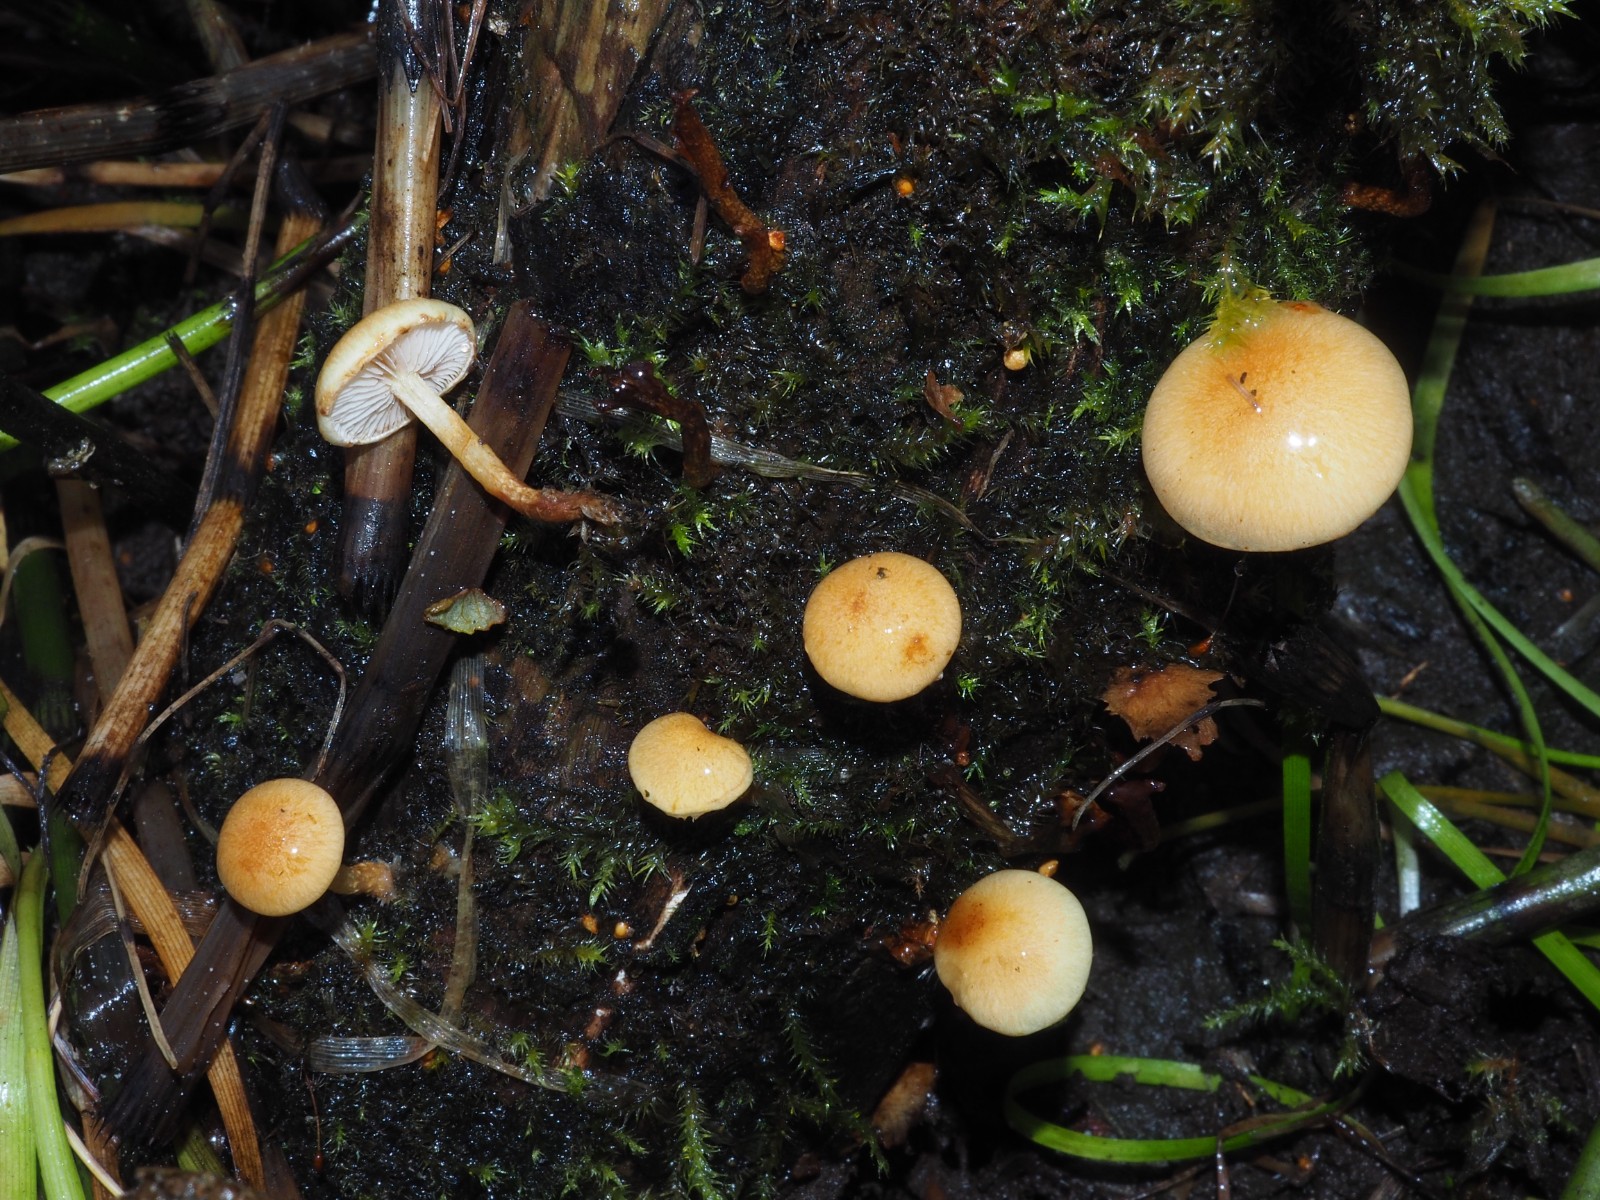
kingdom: Fungi
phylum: Basidiomycota
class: Agaricomycetes
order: Agaricales
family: Strophariaceae
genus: Pholiota
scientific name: Pholiota conissans
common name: pile-skælhat
